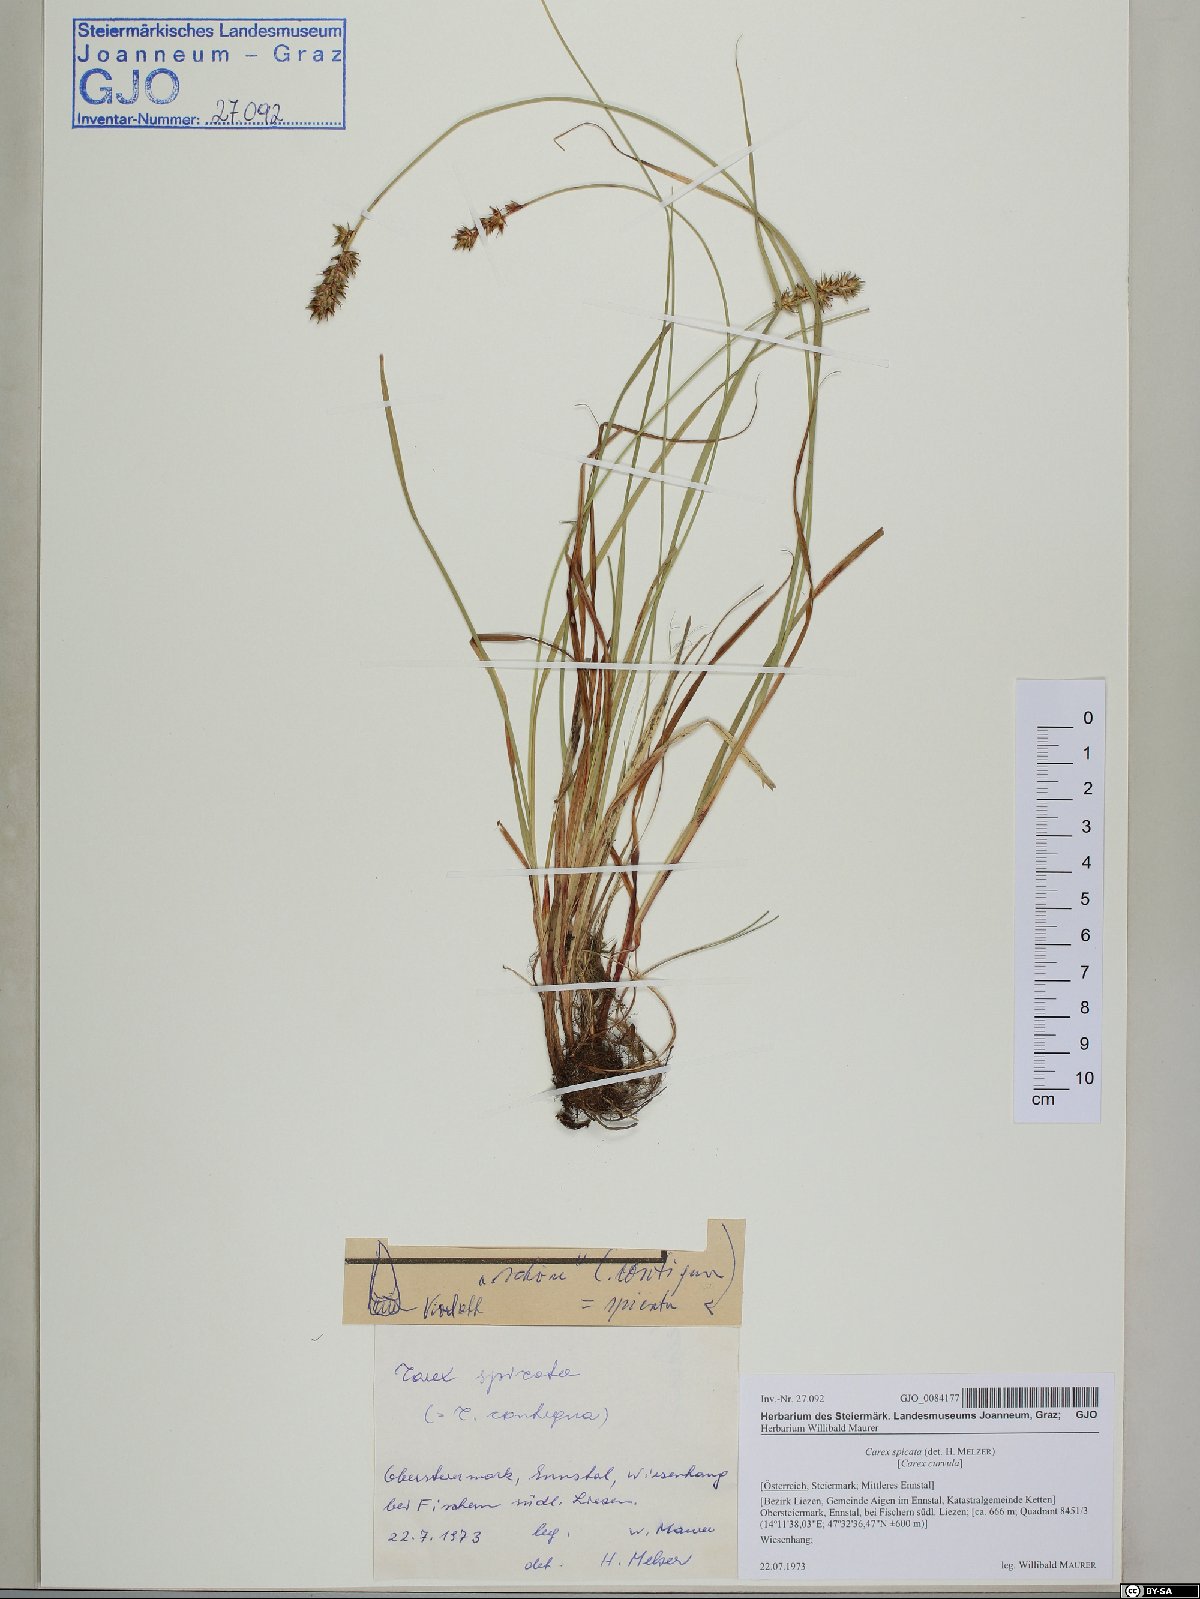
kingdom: Plantae
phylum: Tracheophyta
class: Liliopsida
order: Poales
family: Cyperaceae
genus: Carex
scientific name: Carex spicata
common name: Spiked sedge
